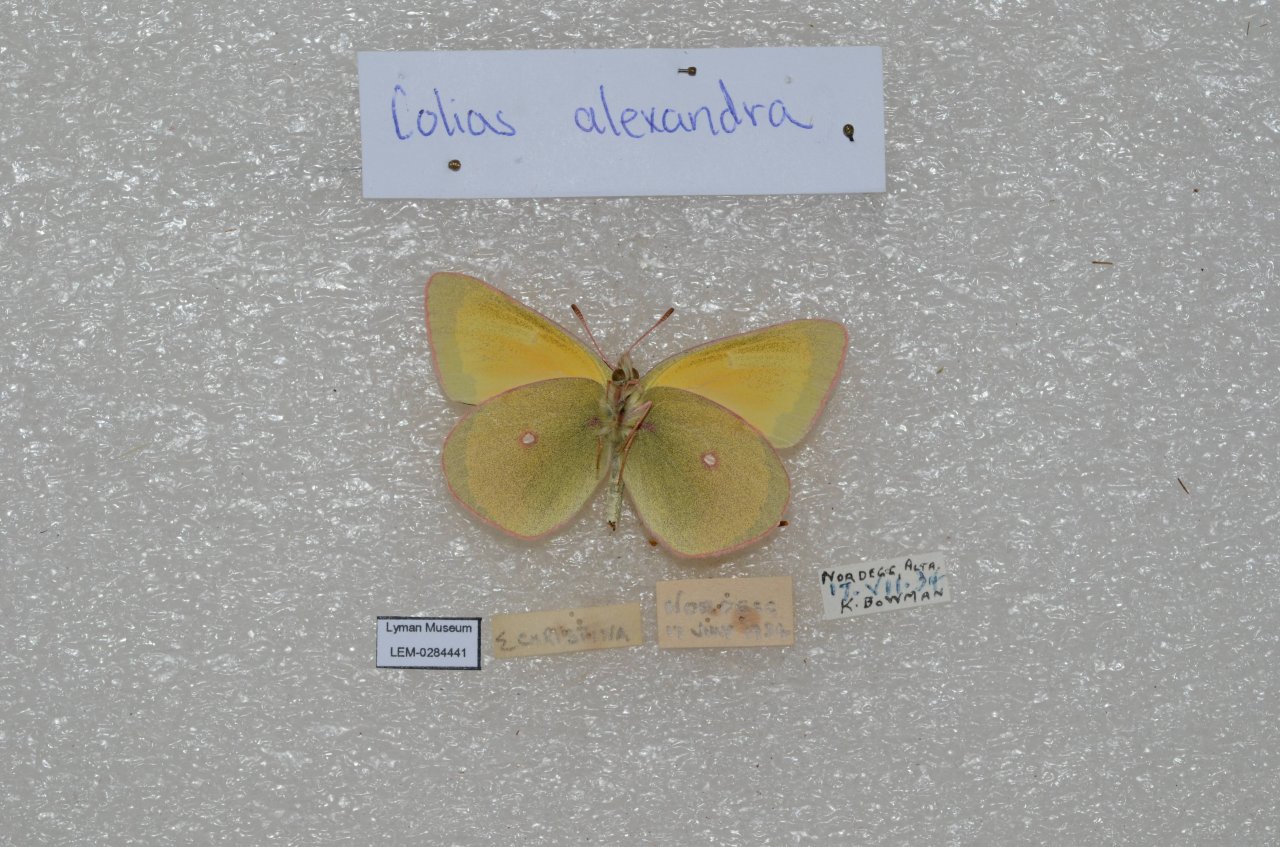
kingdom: Animalia
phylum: Arthropoda
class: Insecta
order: Lepidoptera
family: Pieridae
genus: Colias
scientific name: Colias alexandra
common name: Queen Alexandra's Sulphur
